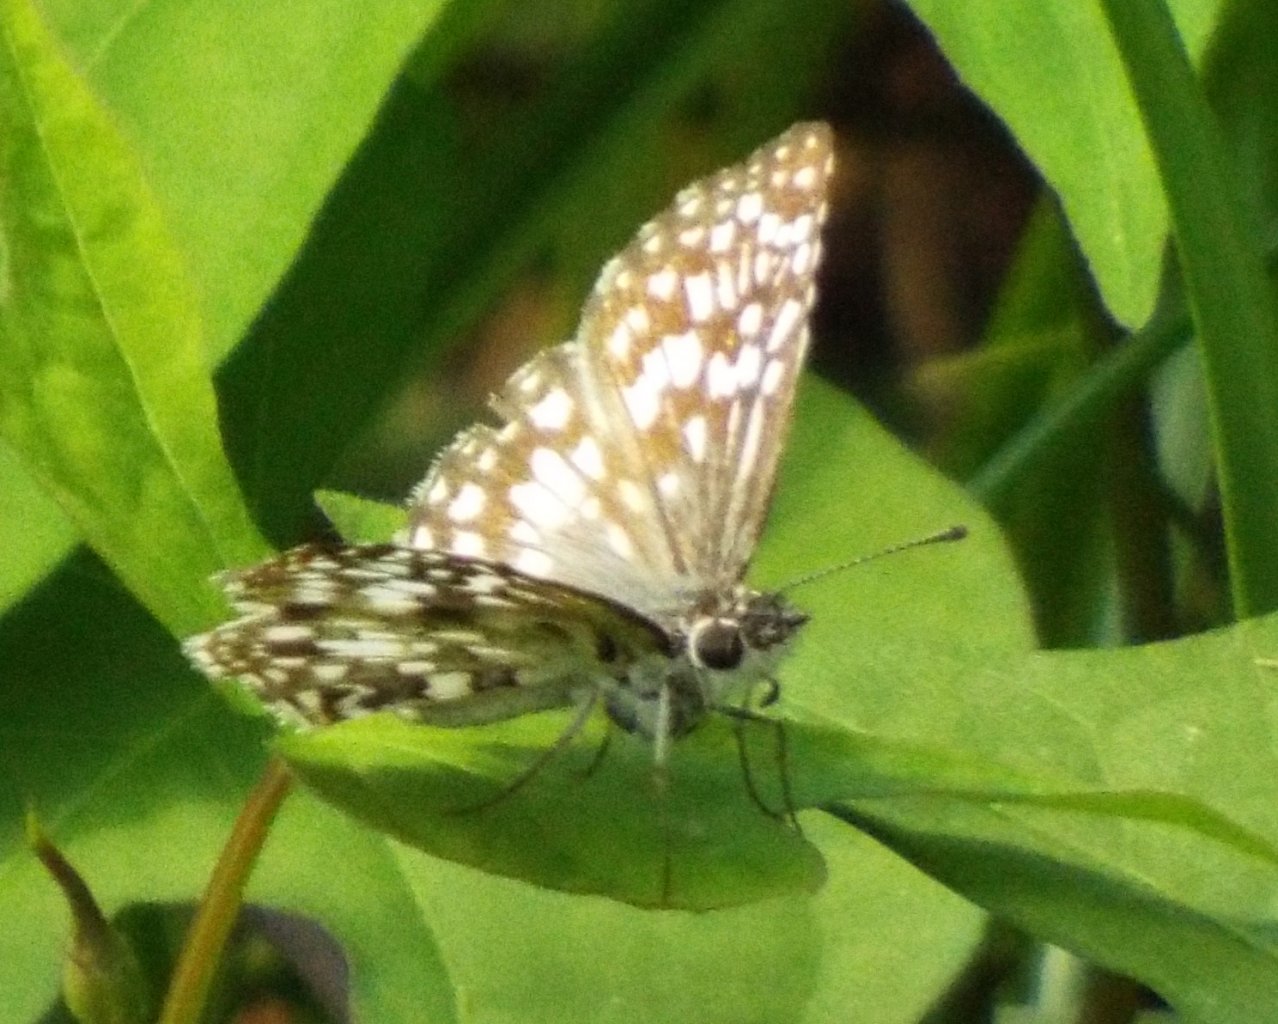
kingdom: Animalia
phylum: Arthropoda
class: Insecta
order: Lepidoptera
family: Hesperiidae
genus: Pyrgus
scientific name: Pyrgus oileus
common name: Tropical Checkered-Skipper
